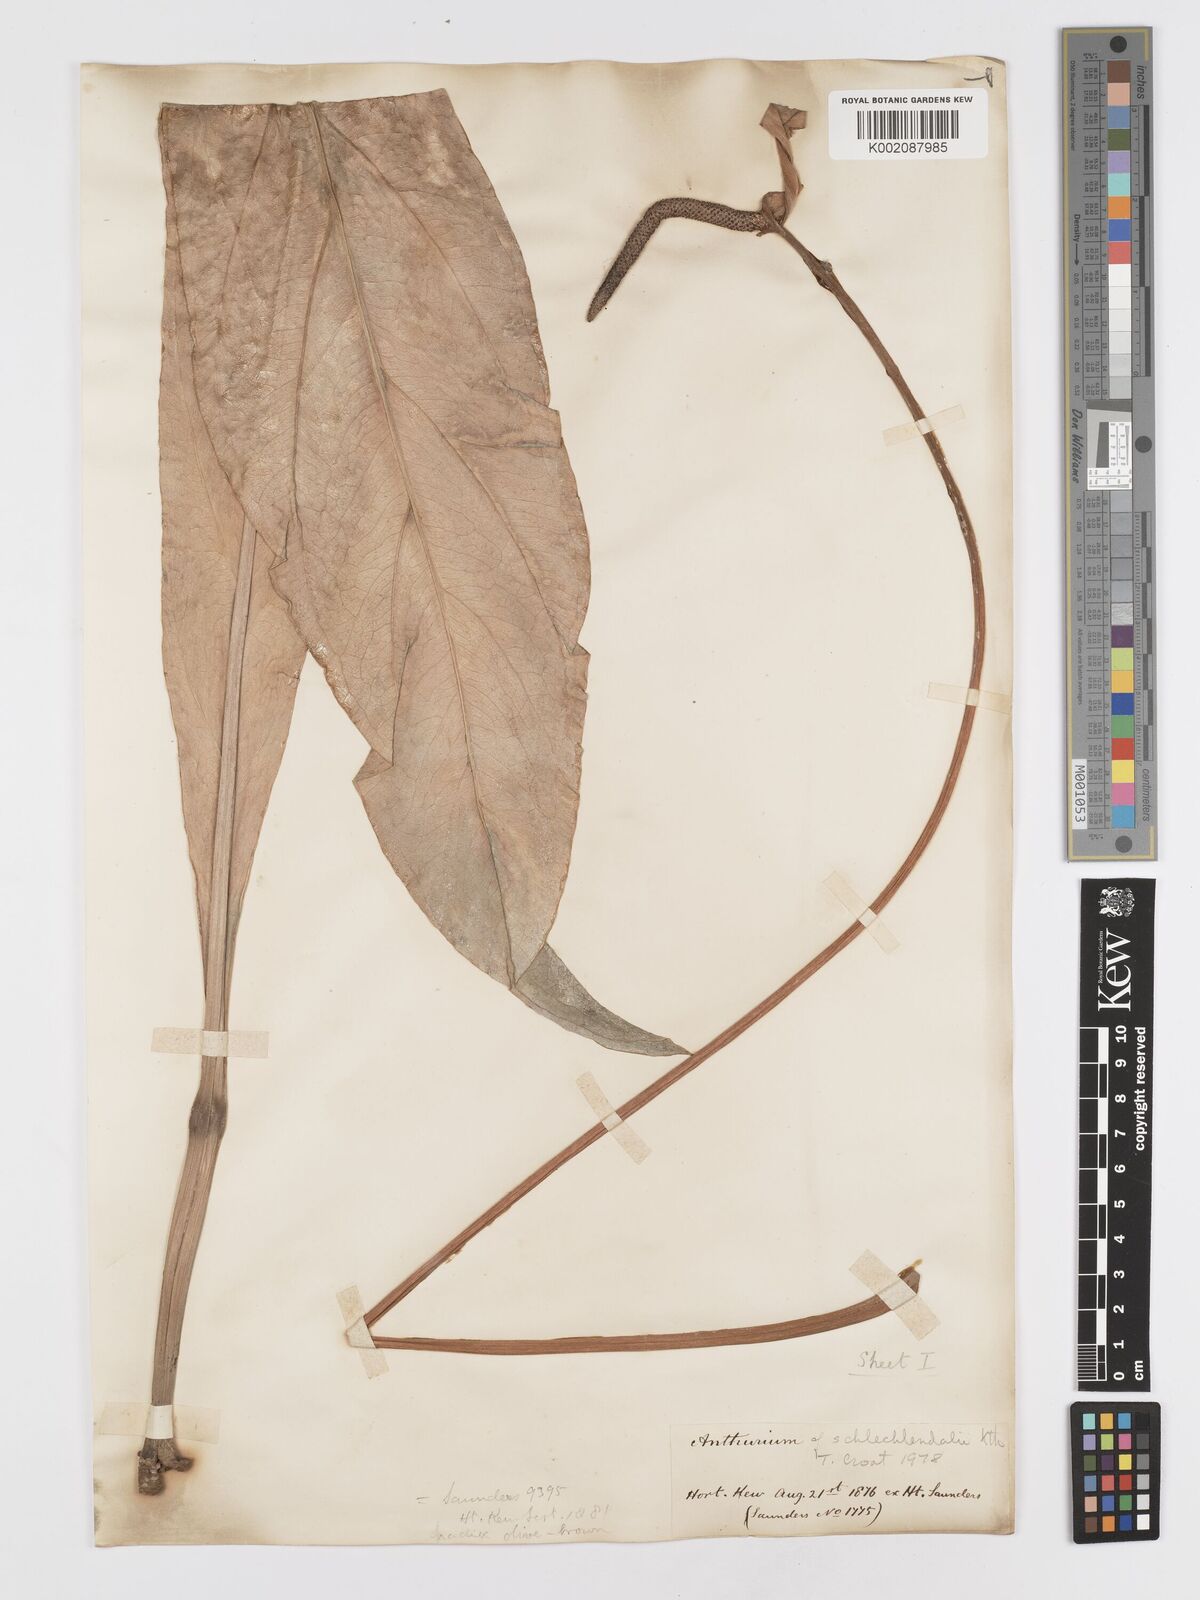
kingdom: Plantae
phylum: Tracheophyta
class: Liliopsida
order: Alismatales
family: Araceae
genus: Anthurium
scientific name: Anthurium schlechtendalii
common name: Laceleaf
